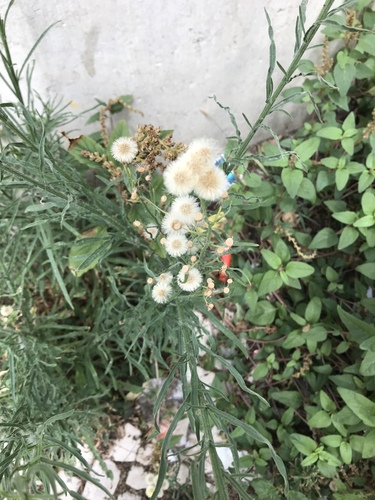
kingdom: Plantae
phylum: Tracheophyta
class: Magnoliopsida
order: Asterales
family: Asteraceae
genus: Erigeron
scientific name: Erigeron bonariensis
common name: Argentine fleabane
